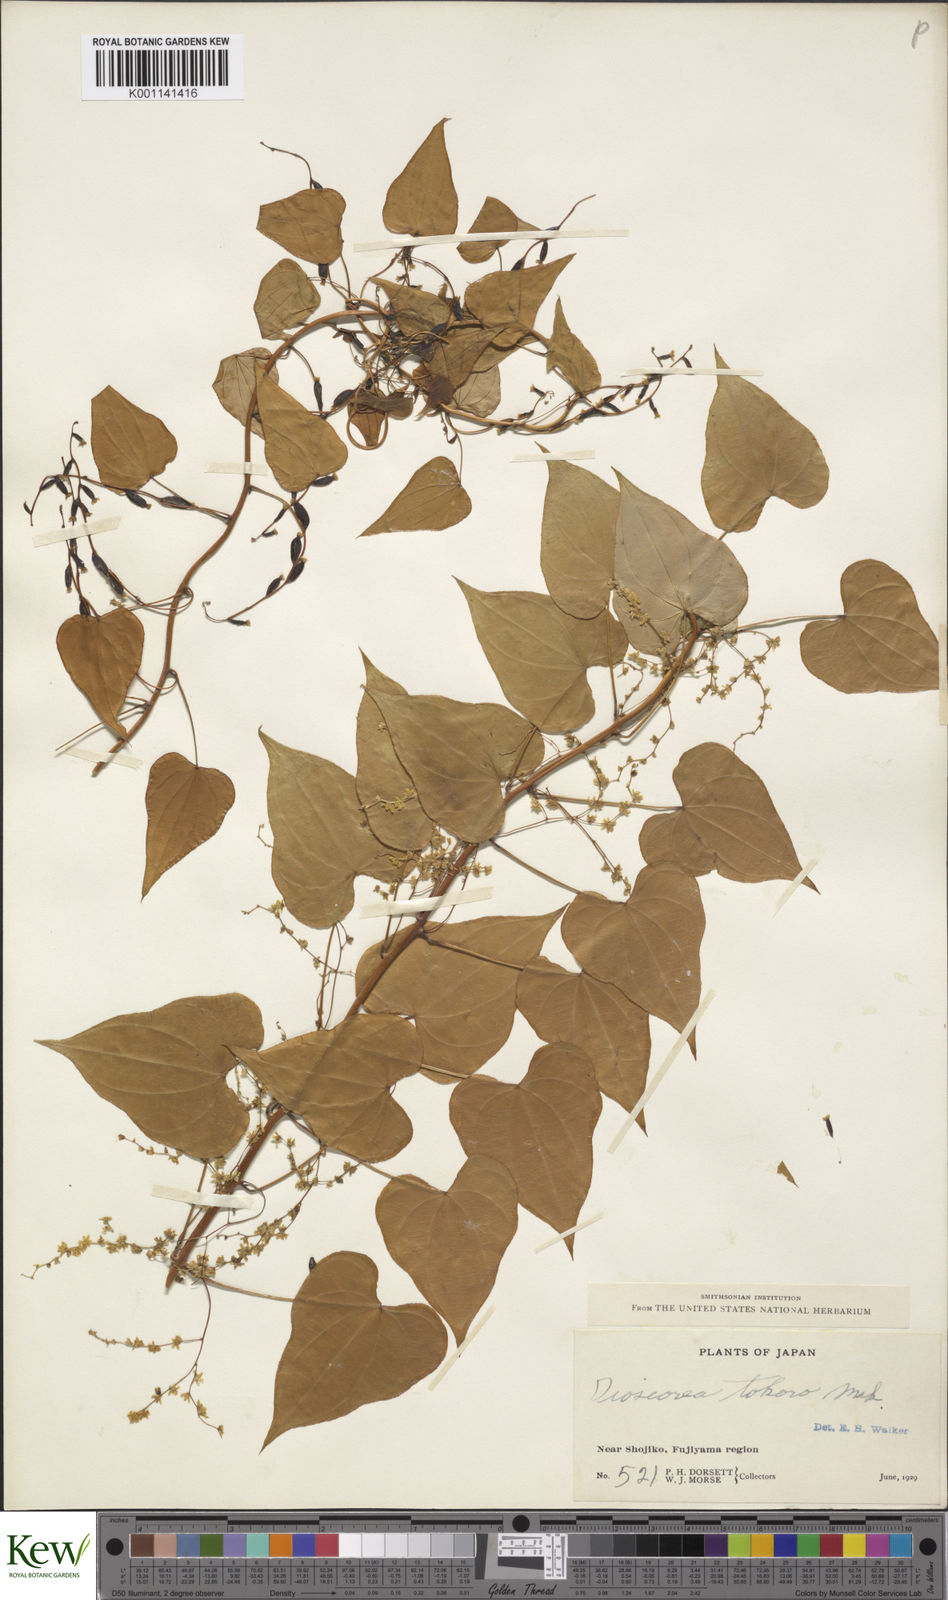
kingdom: Plantae
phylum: Tracheophyta
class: Liliopsida
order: Dioscoreales
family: Dioscoreaceae
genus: Dioscorea
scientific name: Dioscorea tokoro
